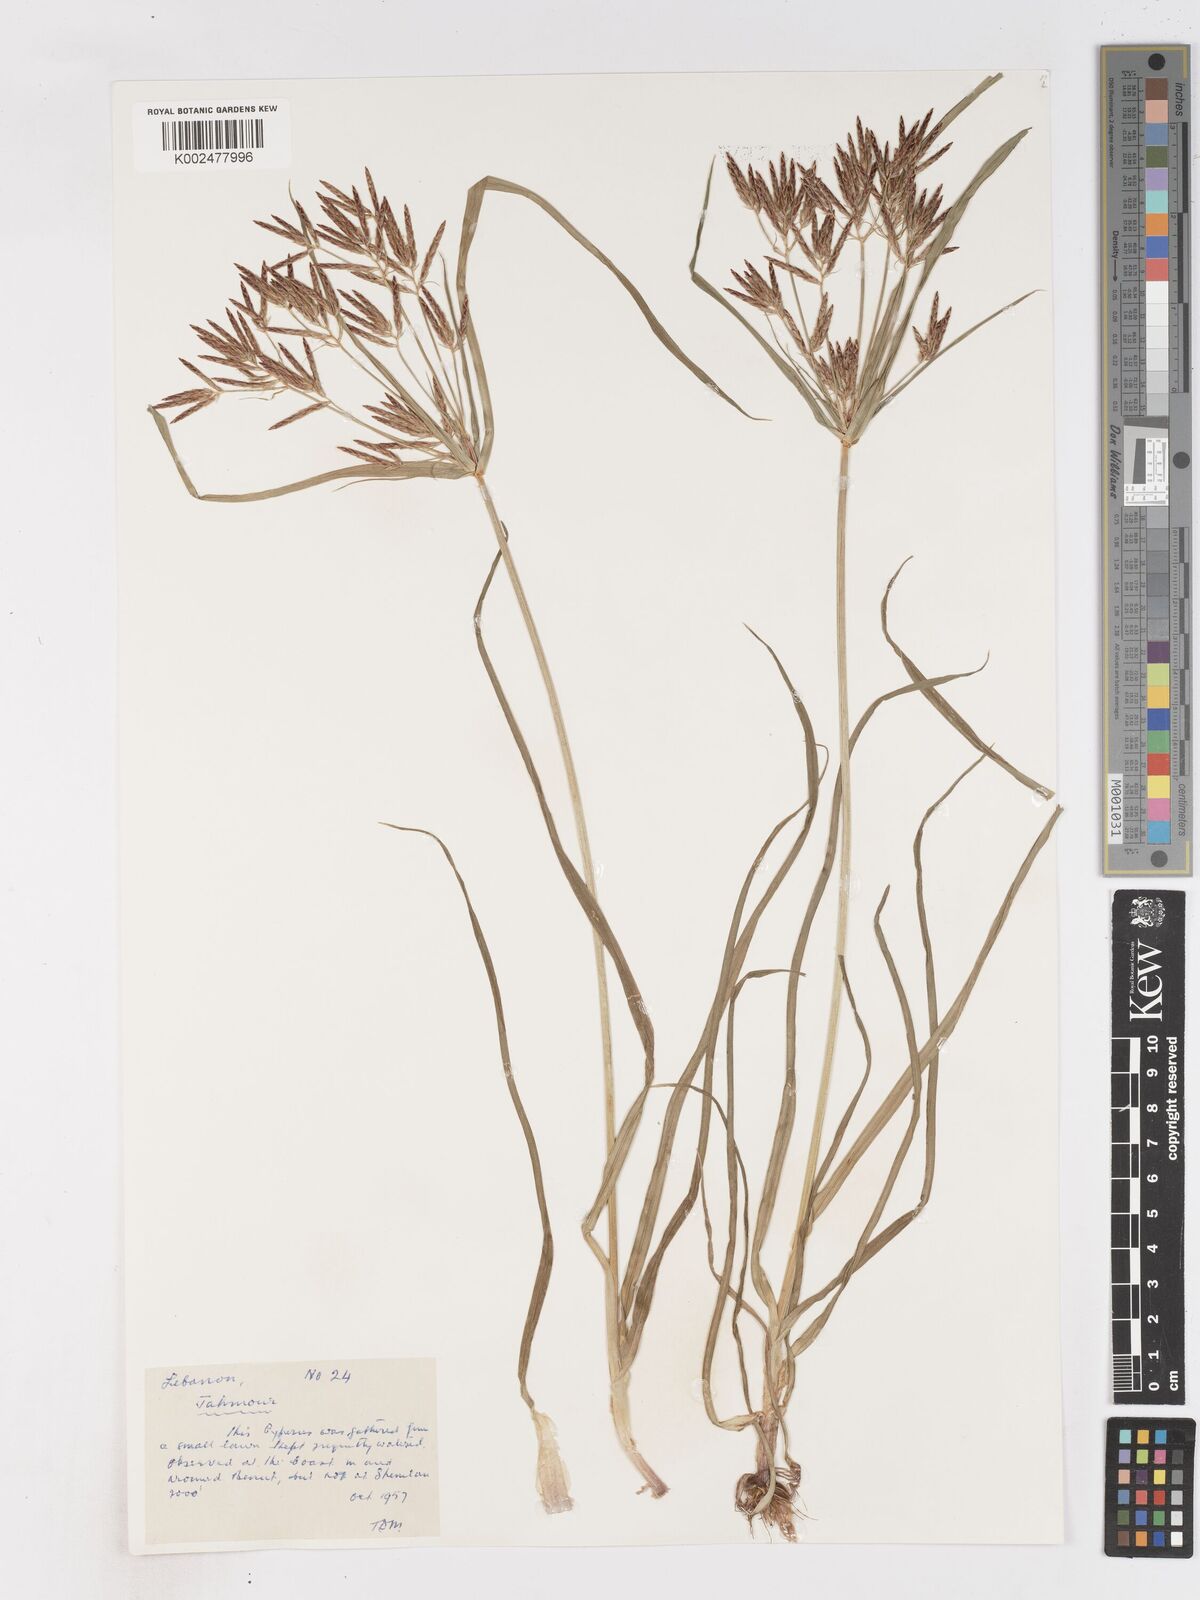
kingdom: Plantae
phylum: Tracheophyta
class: Liliopsida
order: Poales
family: Cyperaceae
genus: Cyperus
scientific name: Cyperus rotundus
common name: Nutgrass
